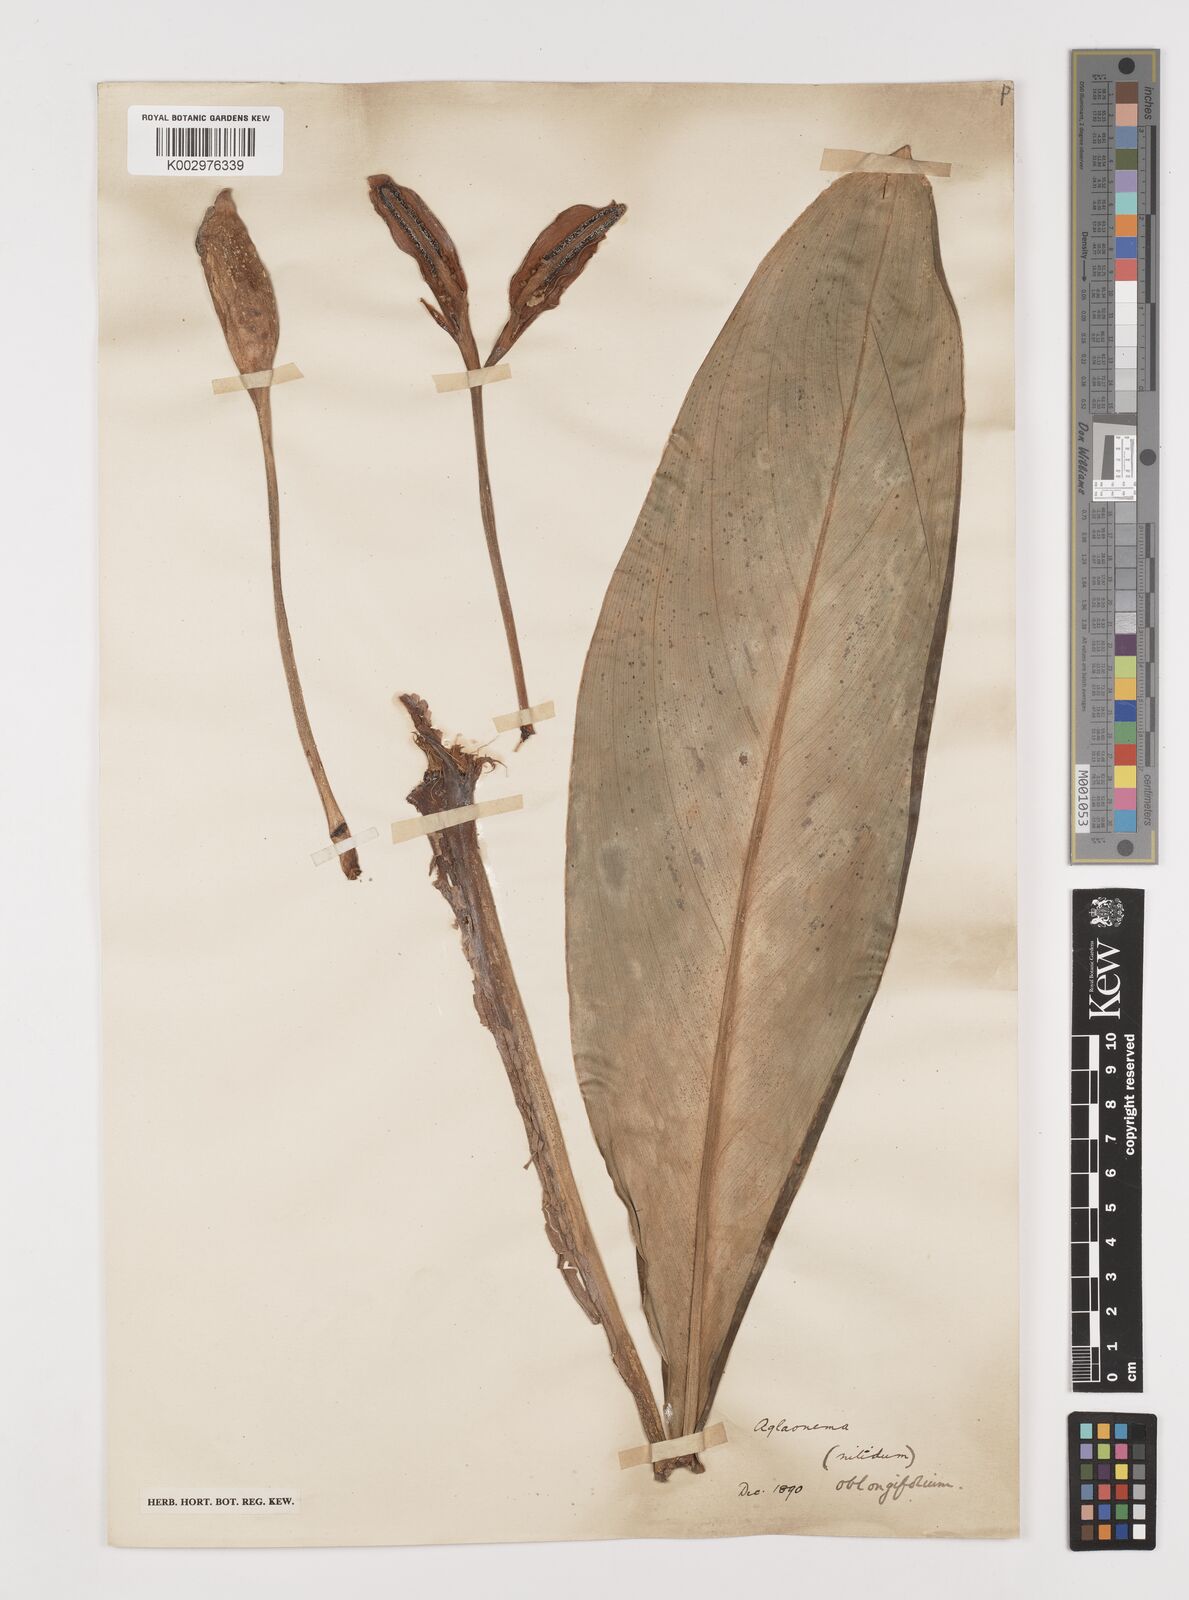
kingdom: Plantae
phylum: Tracheophyta
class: Liliopsida
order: Alismatales
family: Araceae
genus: Aglaonema
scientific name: Aglaonema nitidum
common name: Aglaonema aroid
